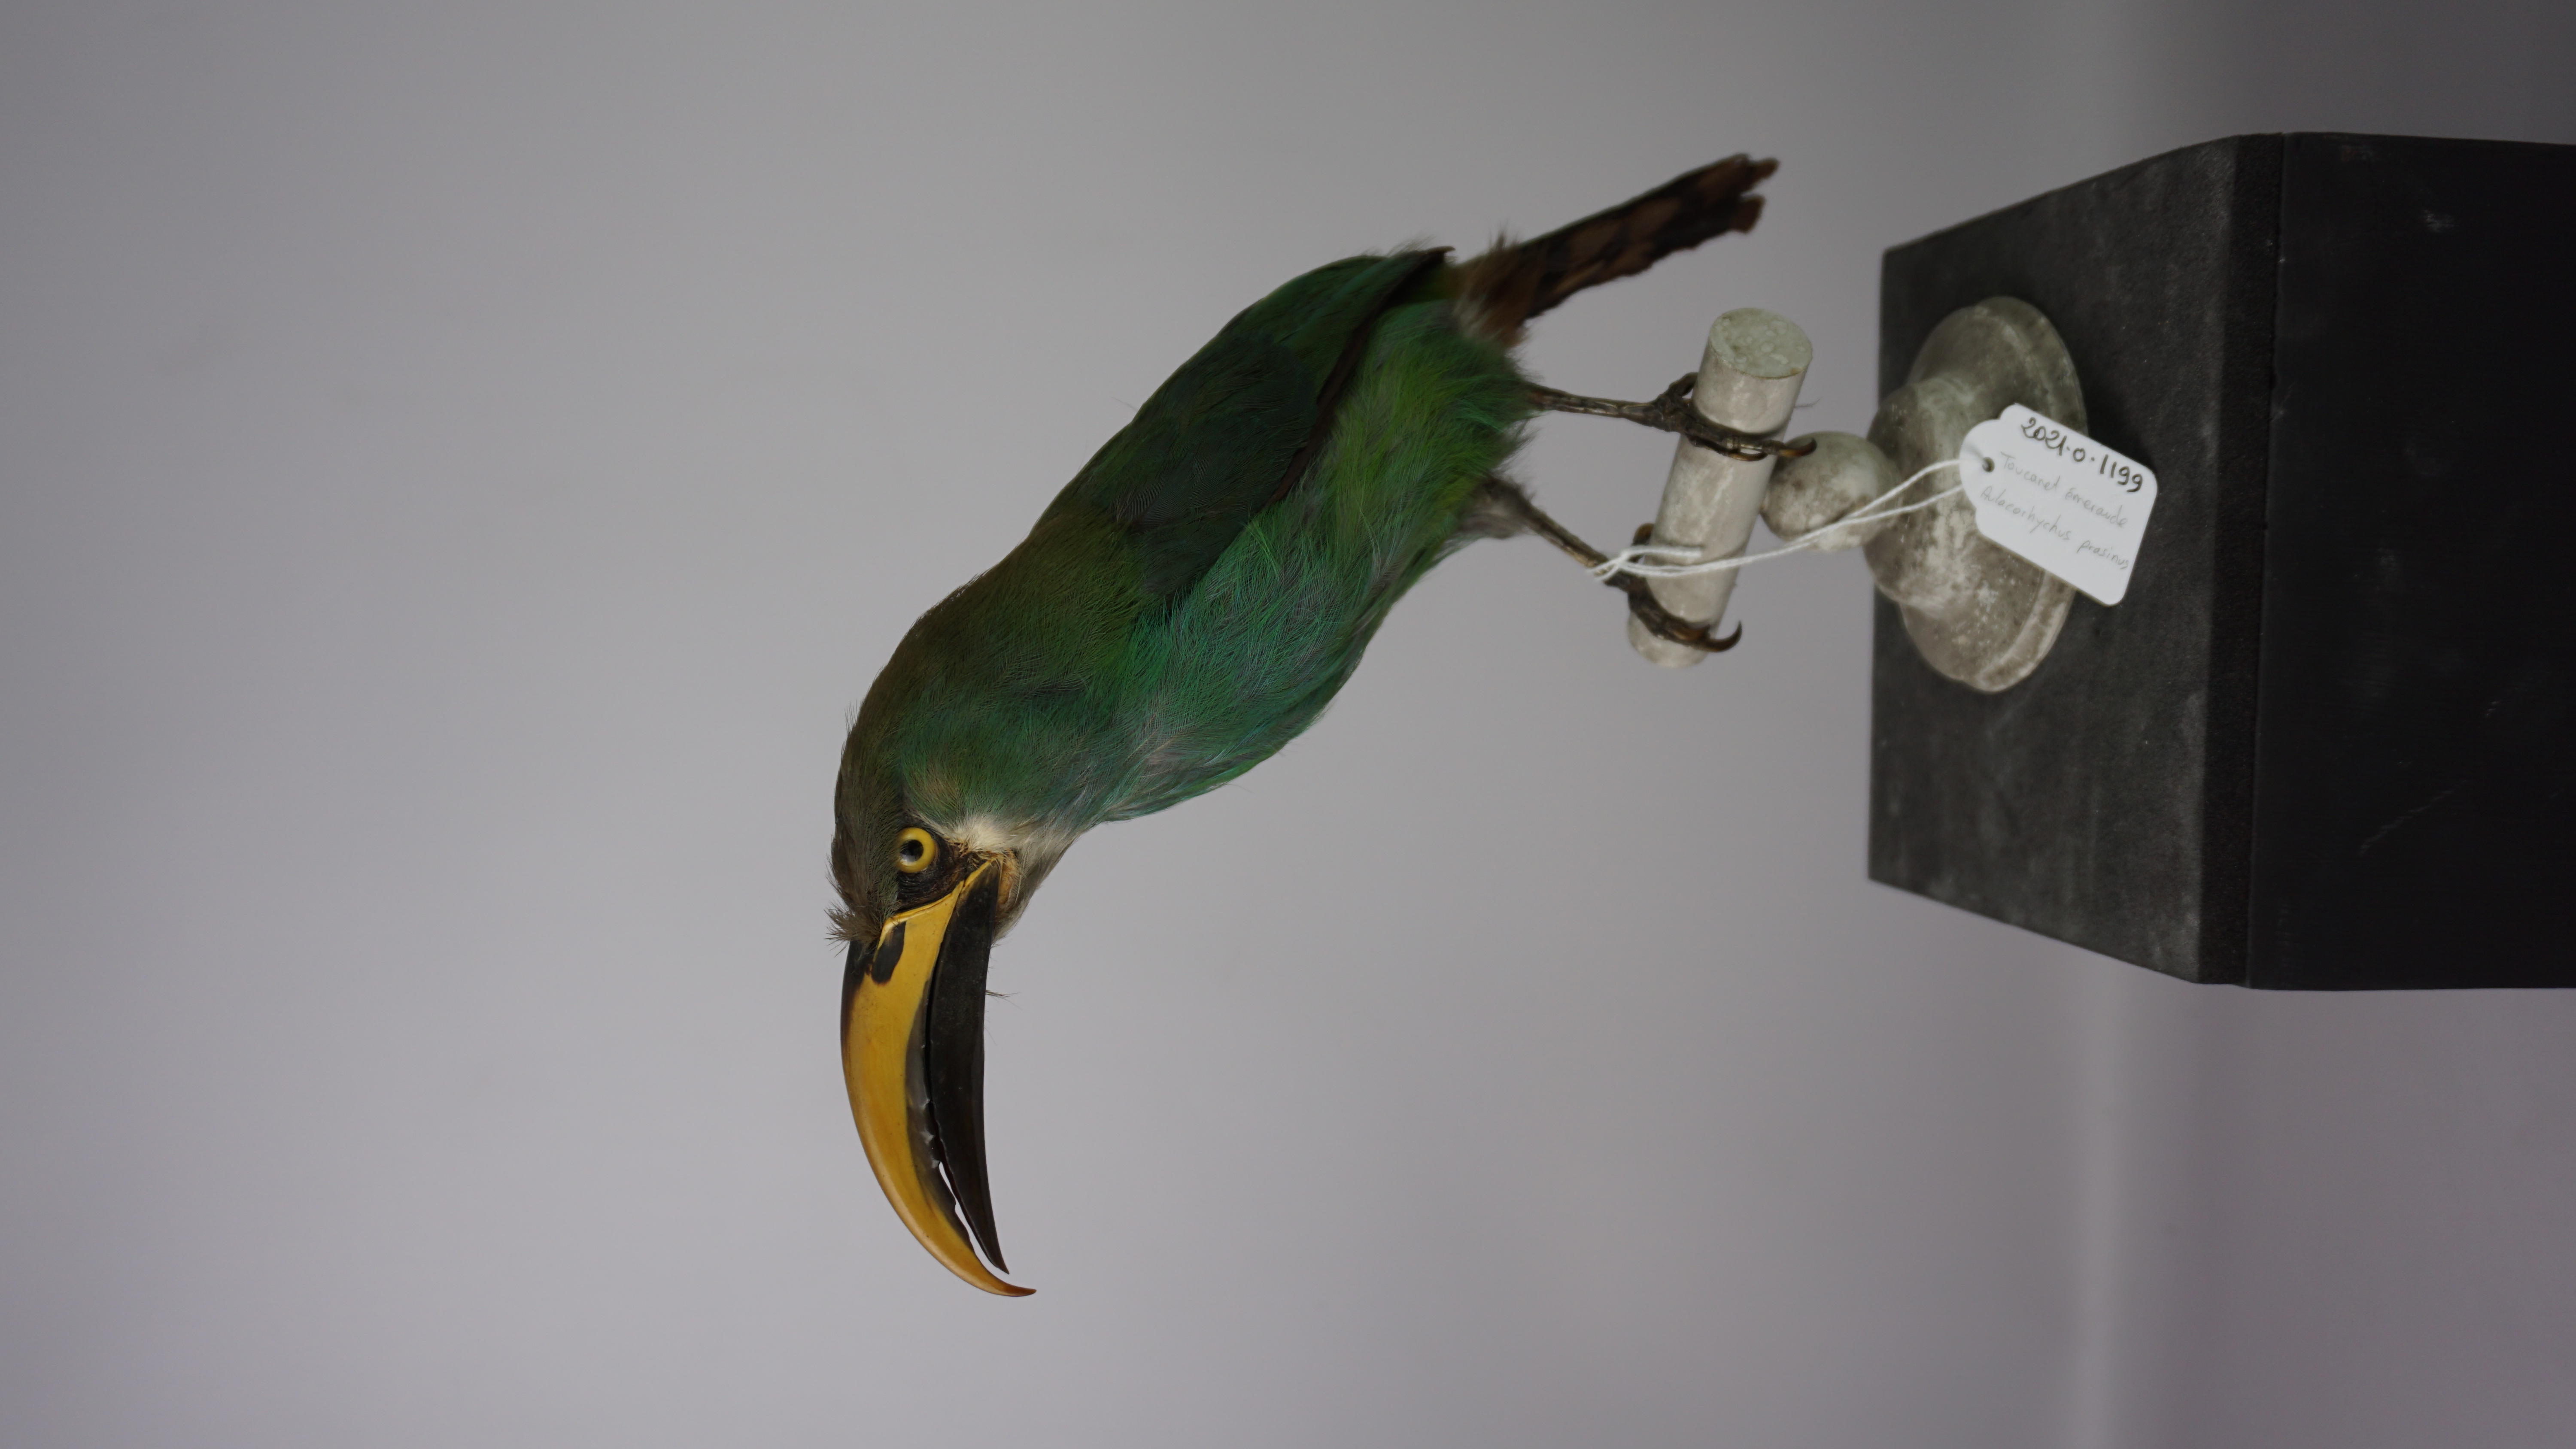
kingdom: Animalia
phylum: Chordata
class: Aves
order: Piciformes
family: Ramphastidae
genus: Aulacorhynchus
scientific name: Aulacorhynchus prasinus
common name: Emerald toucanet
